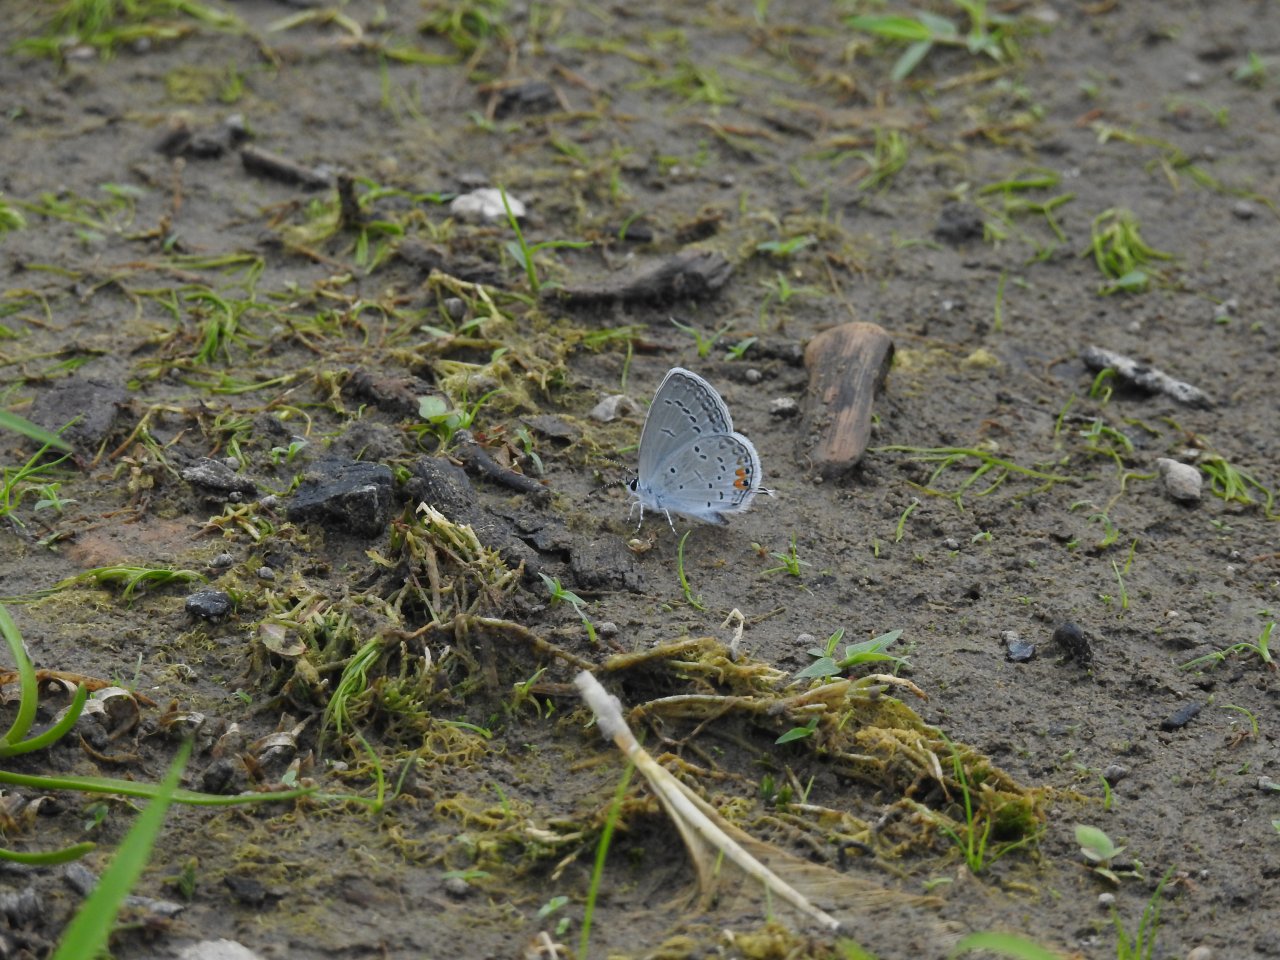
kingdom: Animalia
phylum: Arthropoda
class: Insecta
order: Lepidoptera
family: Lycaenidae
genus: Elkalyce
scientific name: Elkalyce comyntas
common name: Eastern Tailed-Blue
